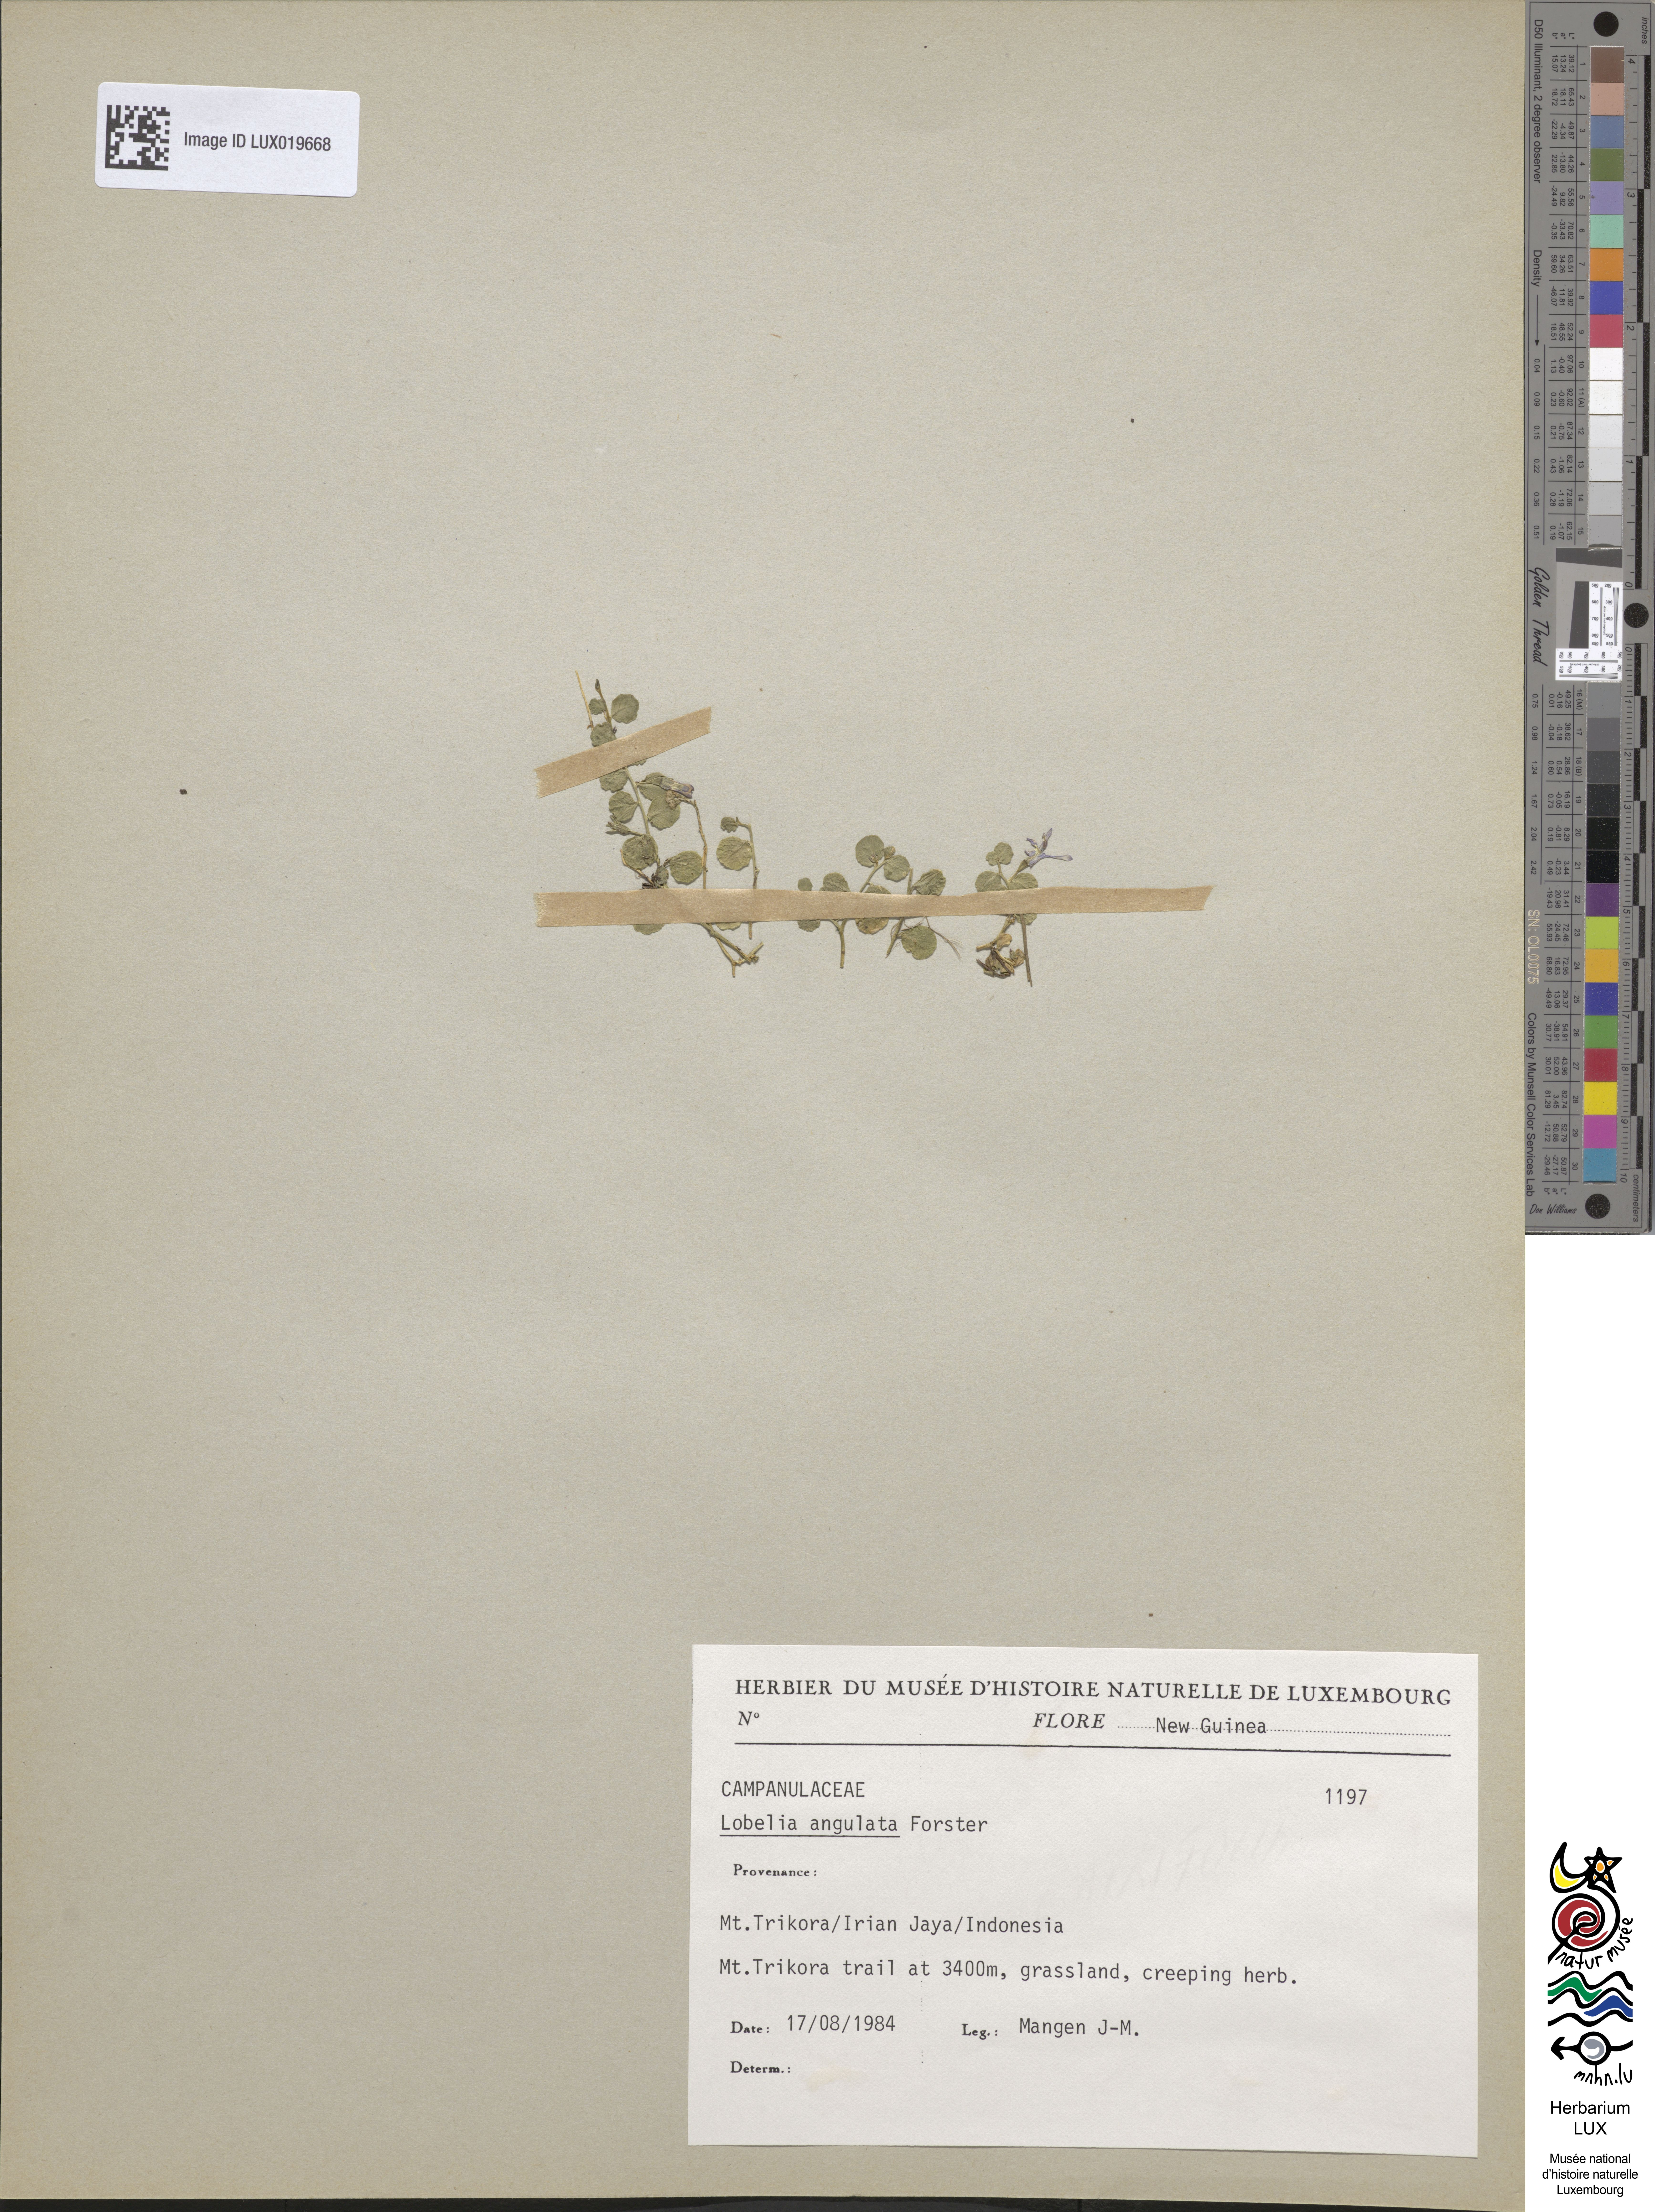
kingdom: Plantae
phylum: Tracheophyta
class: Magnoliopsida
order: Asterales
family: Campanulaceae
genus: Lobelia
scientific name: Lobelia angulata
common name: Lawn lobelia
